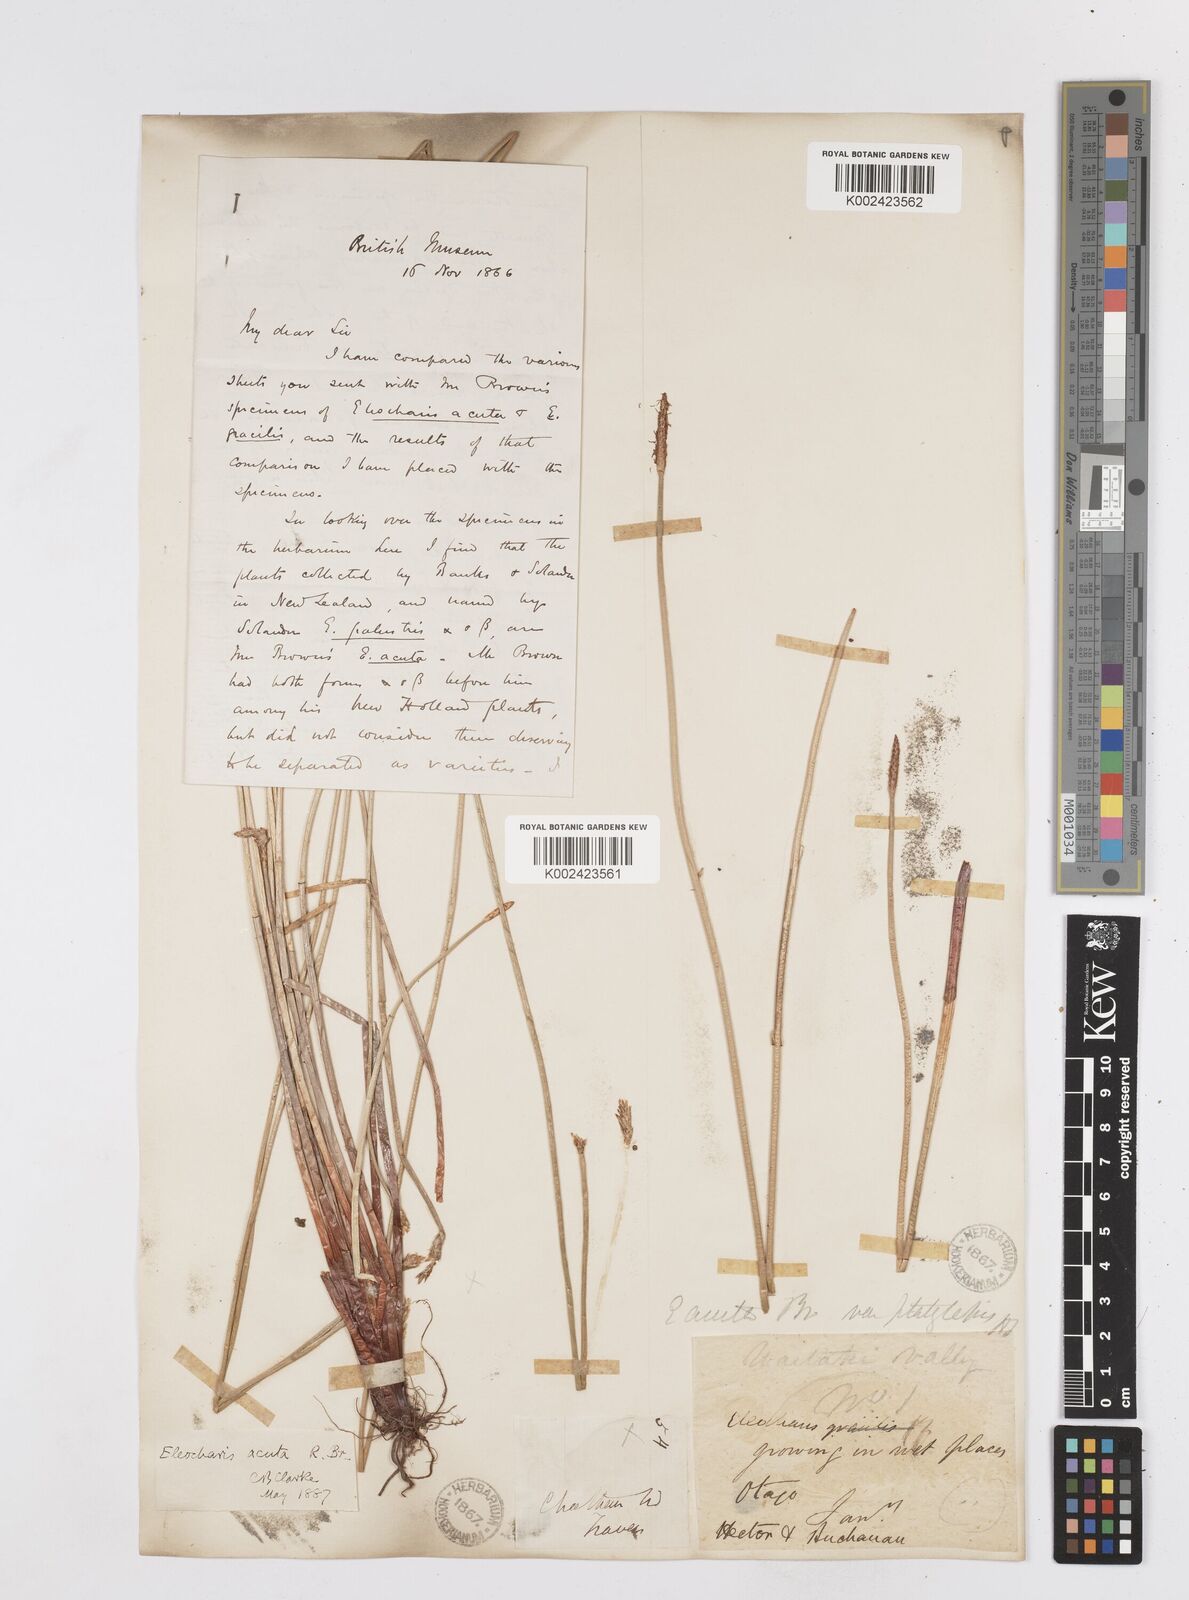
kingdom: Plantae
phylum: Tracheophyta
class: Liliopsida
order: Poales
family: Cyperaceae
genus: Eleocharis
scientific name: Eleocharis acuta
